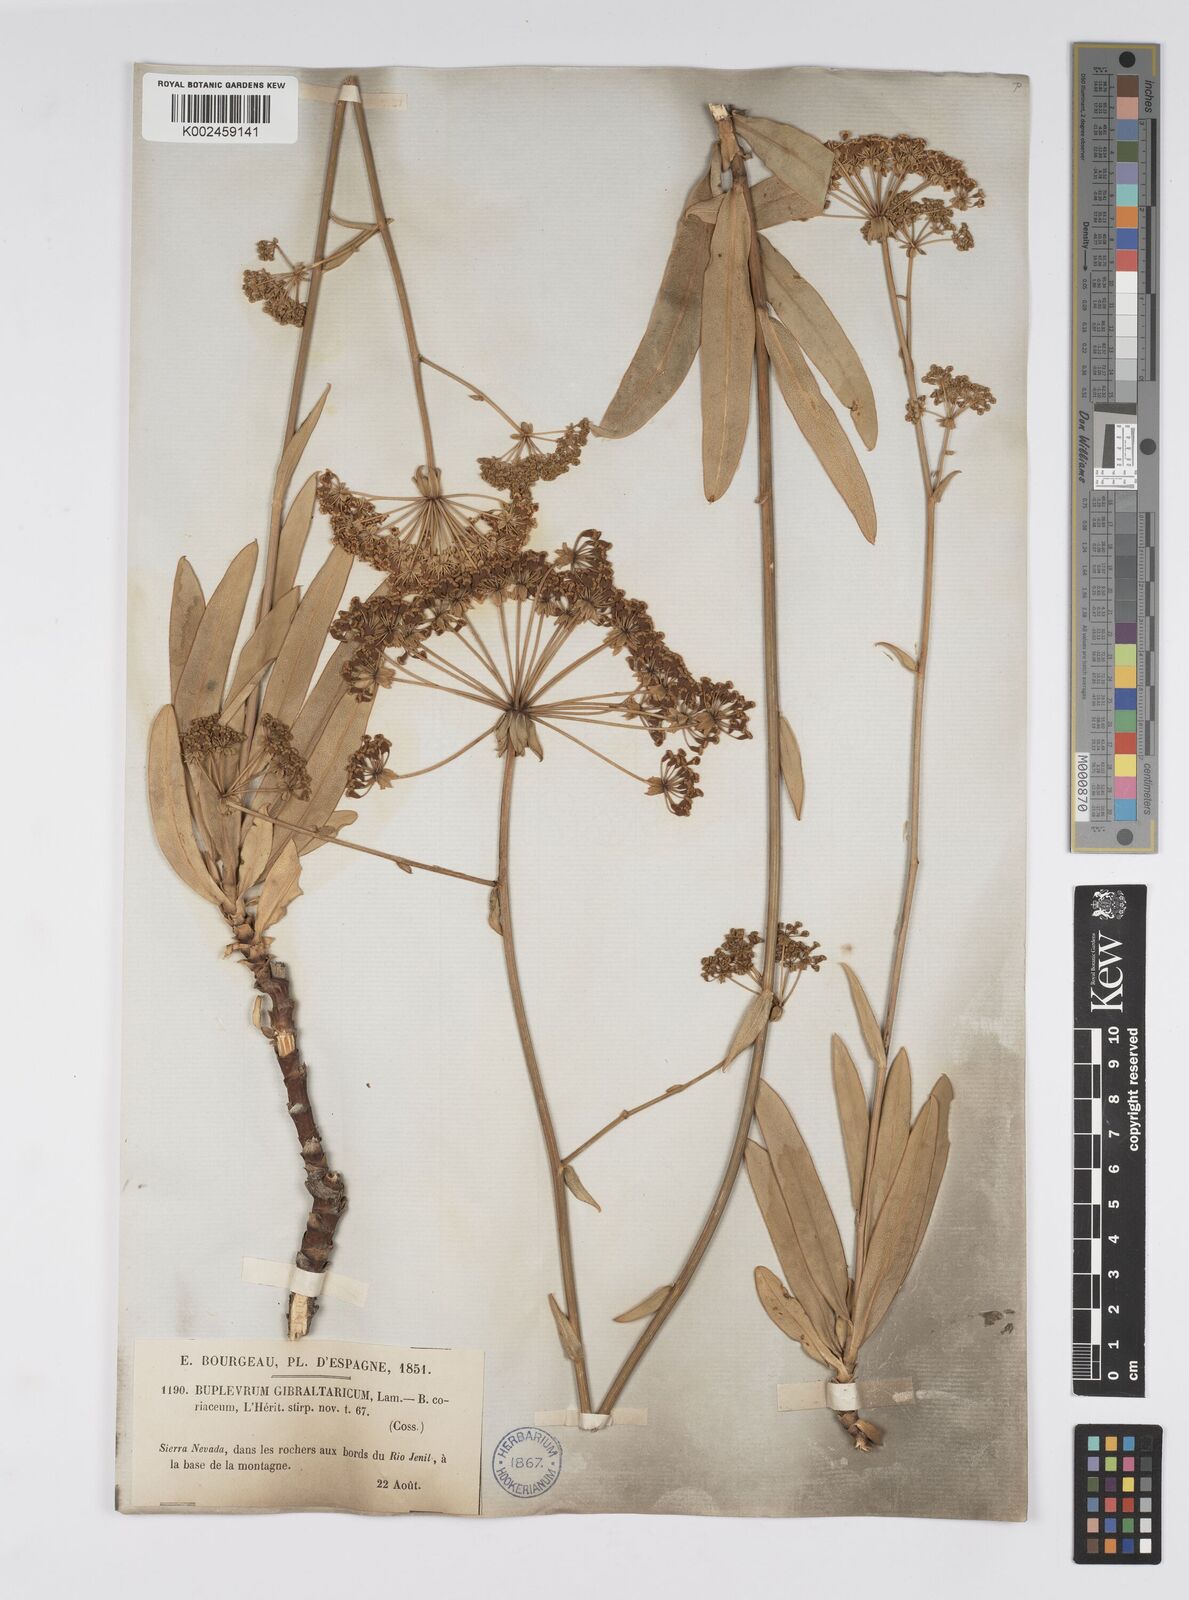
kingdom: Plantae
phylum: Tracheophyta
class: Magnoliopsida
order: Apiales
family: Apiaceae
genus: Bupleurum
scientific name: Bupleurum gibraltaricum
